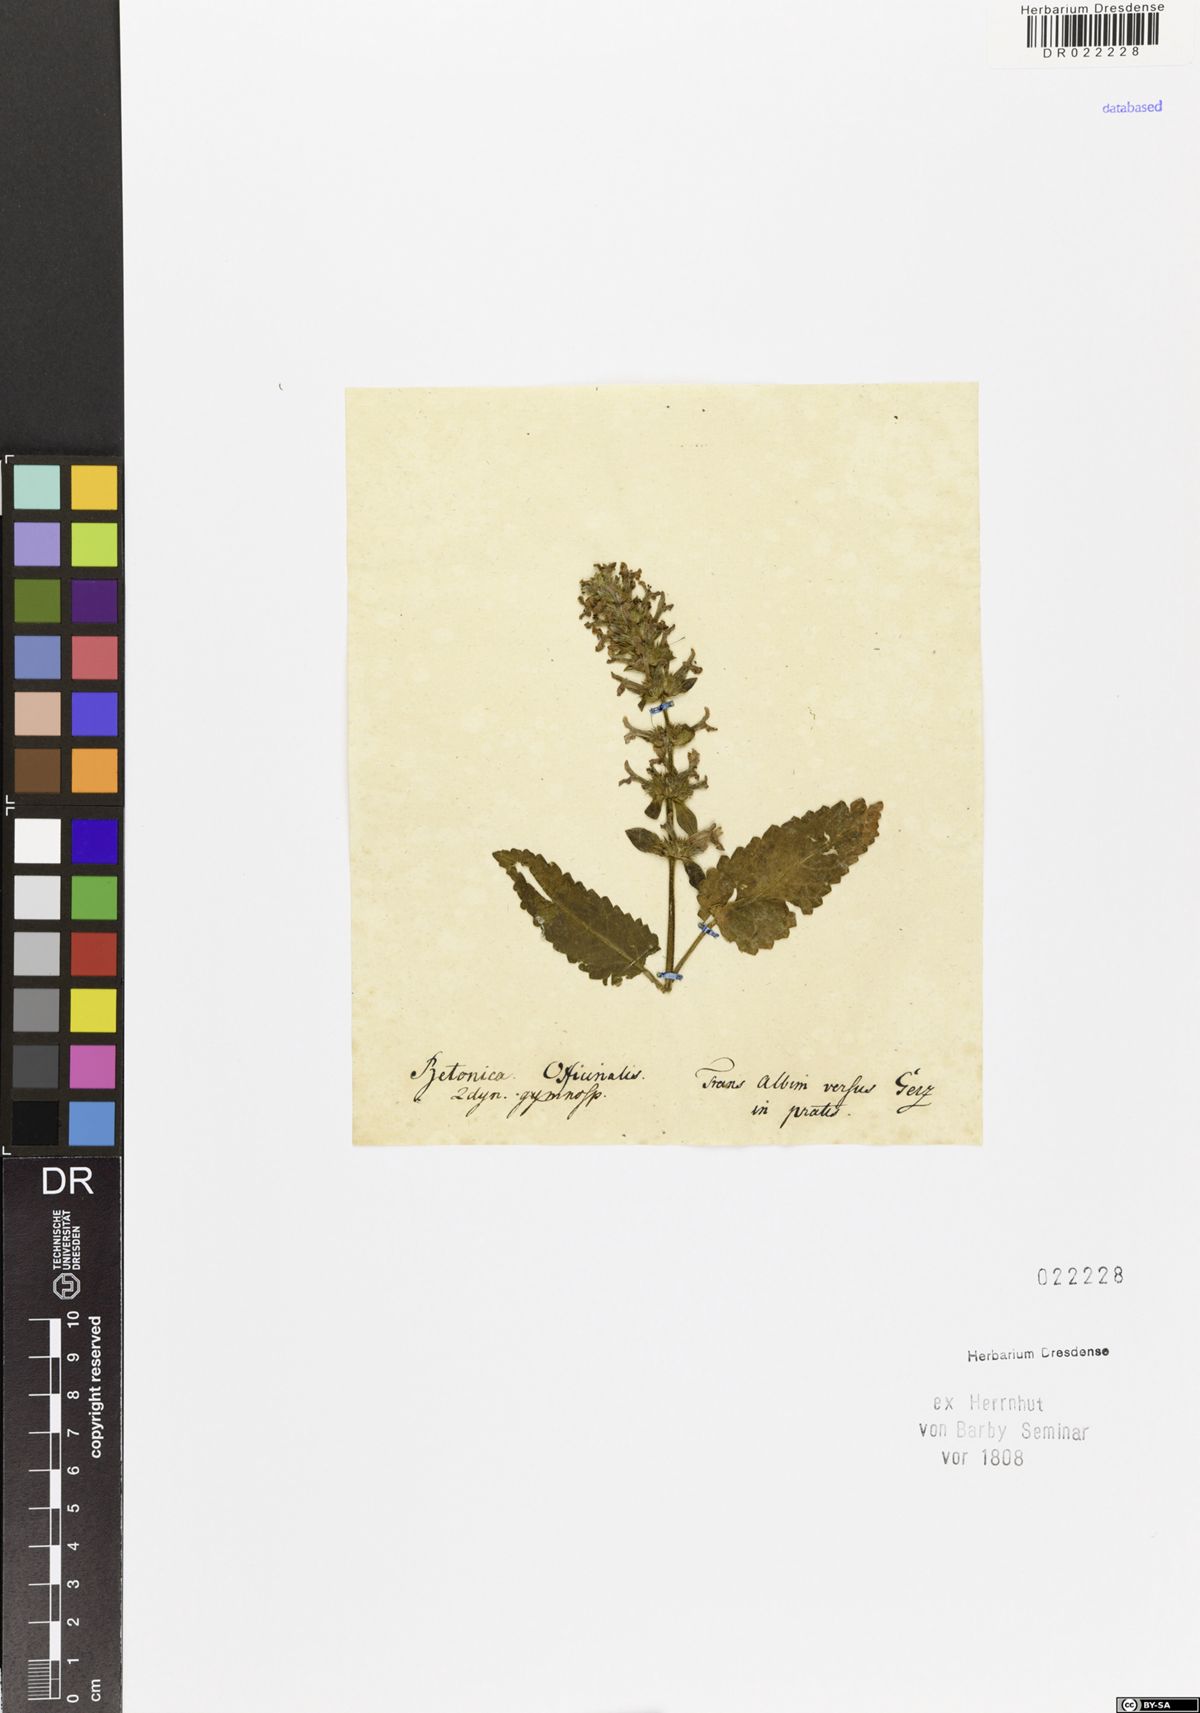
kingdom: Plantae
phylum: Tracheophyta
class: Magnoliopsida
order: Lamiales
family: Lamiaceae
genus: Betonica
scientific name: Betonica officinalis
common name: Bishop's-wort
